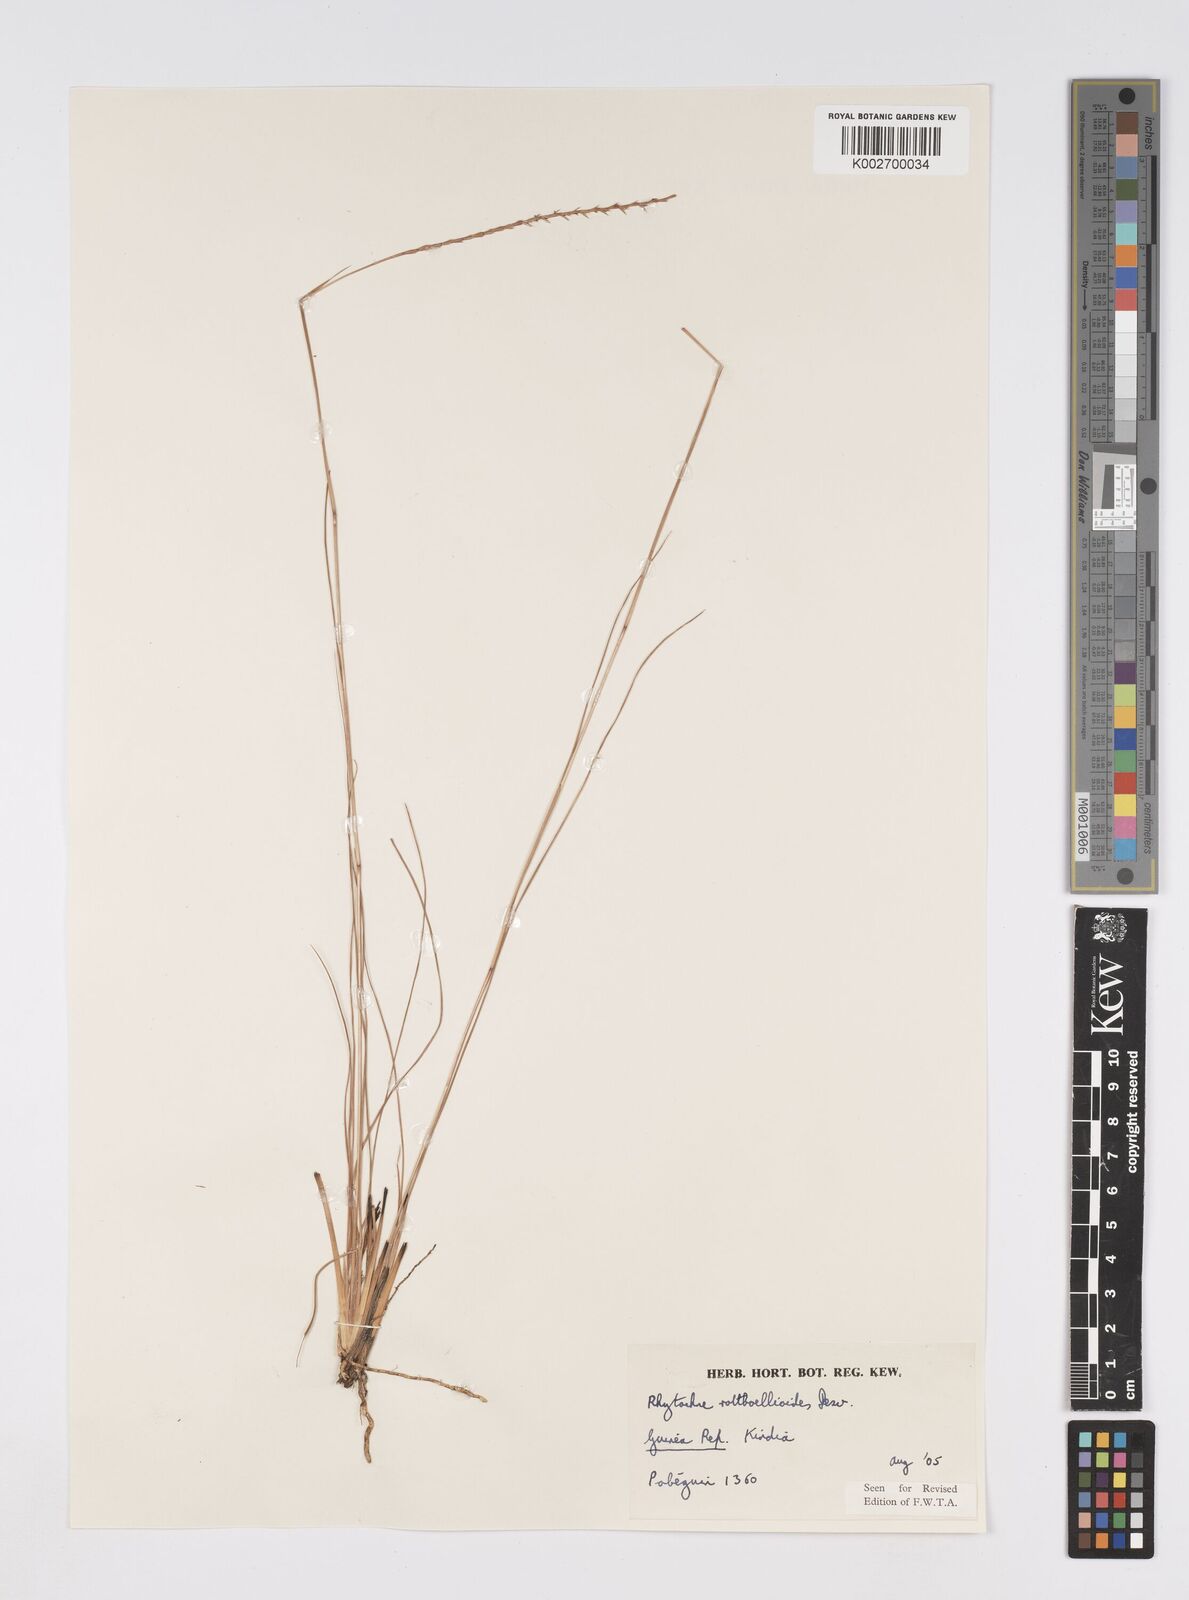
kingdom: Plantae
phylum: Tracheophyta
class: Liliopsida
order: Poales
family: Poaceae
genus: Rhytachne
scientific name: Rhytachne rottboellioides
